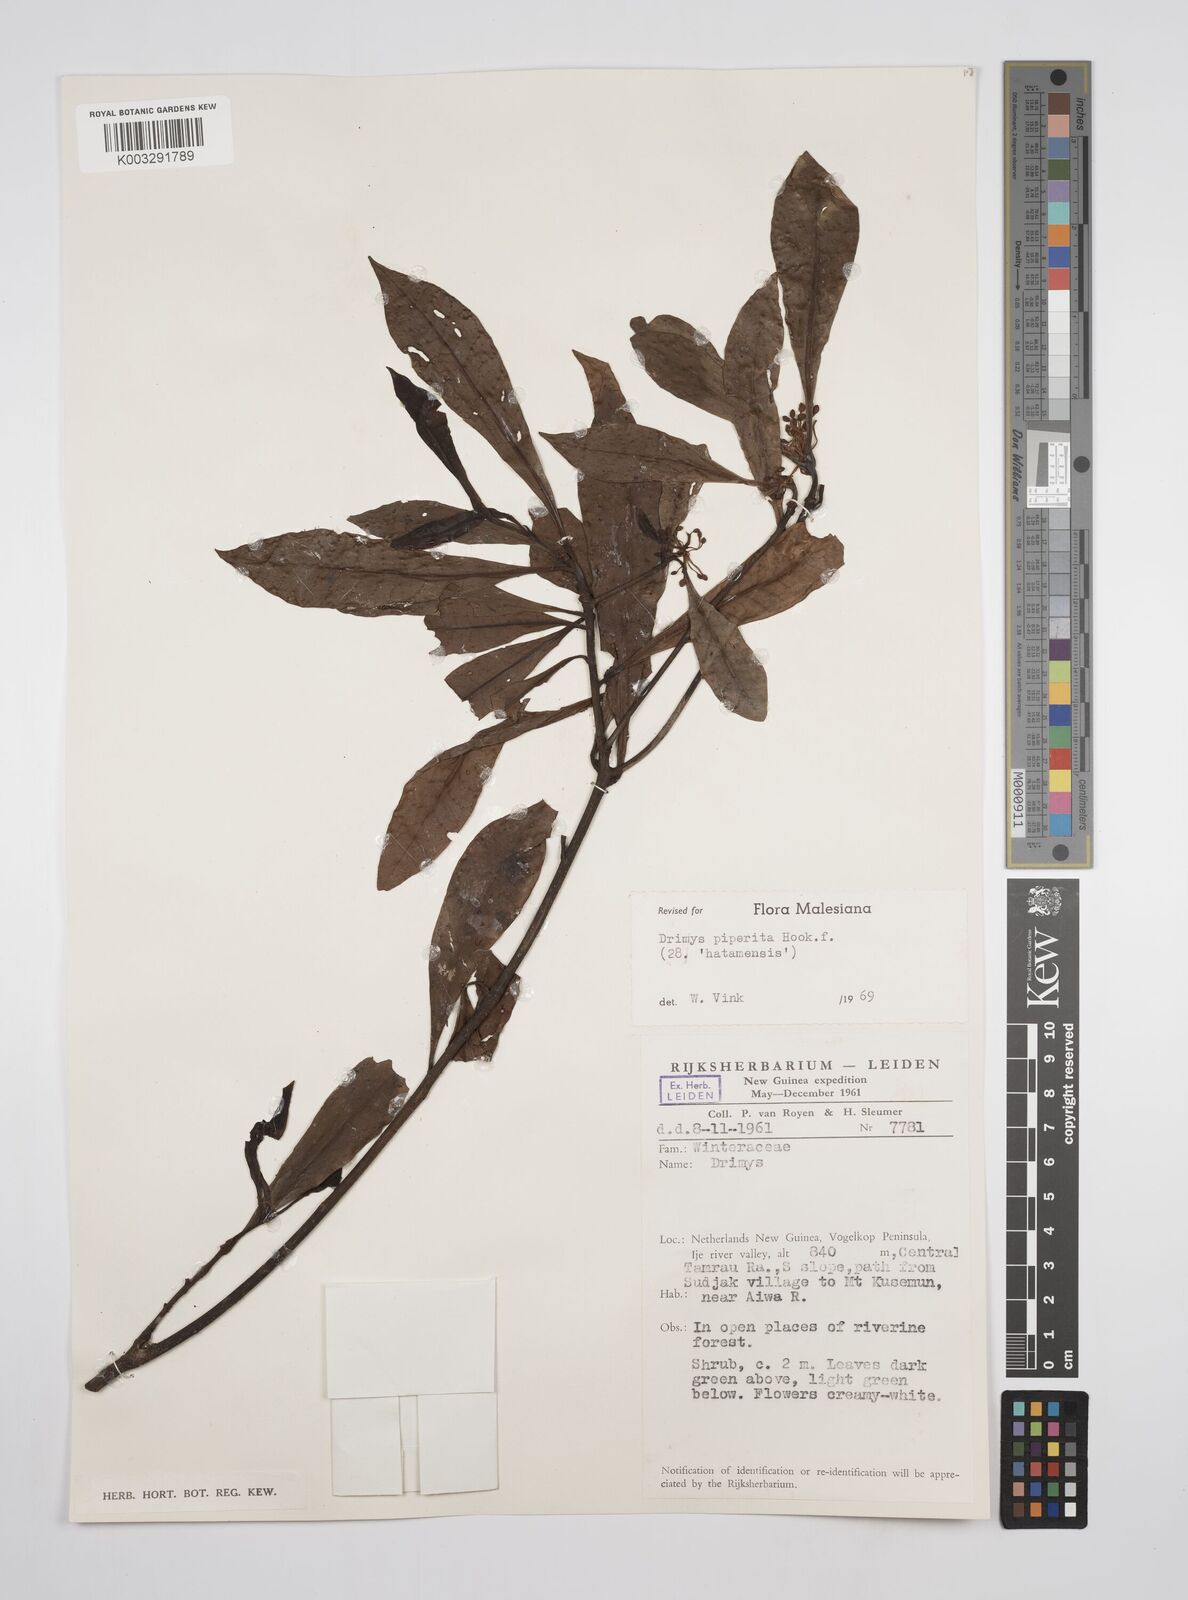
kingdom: Plantae
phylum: Tracheophyta
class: Magnoliopsida
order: Canellales
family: Winteraceae
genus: Drimys
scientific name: Drimys piperita
